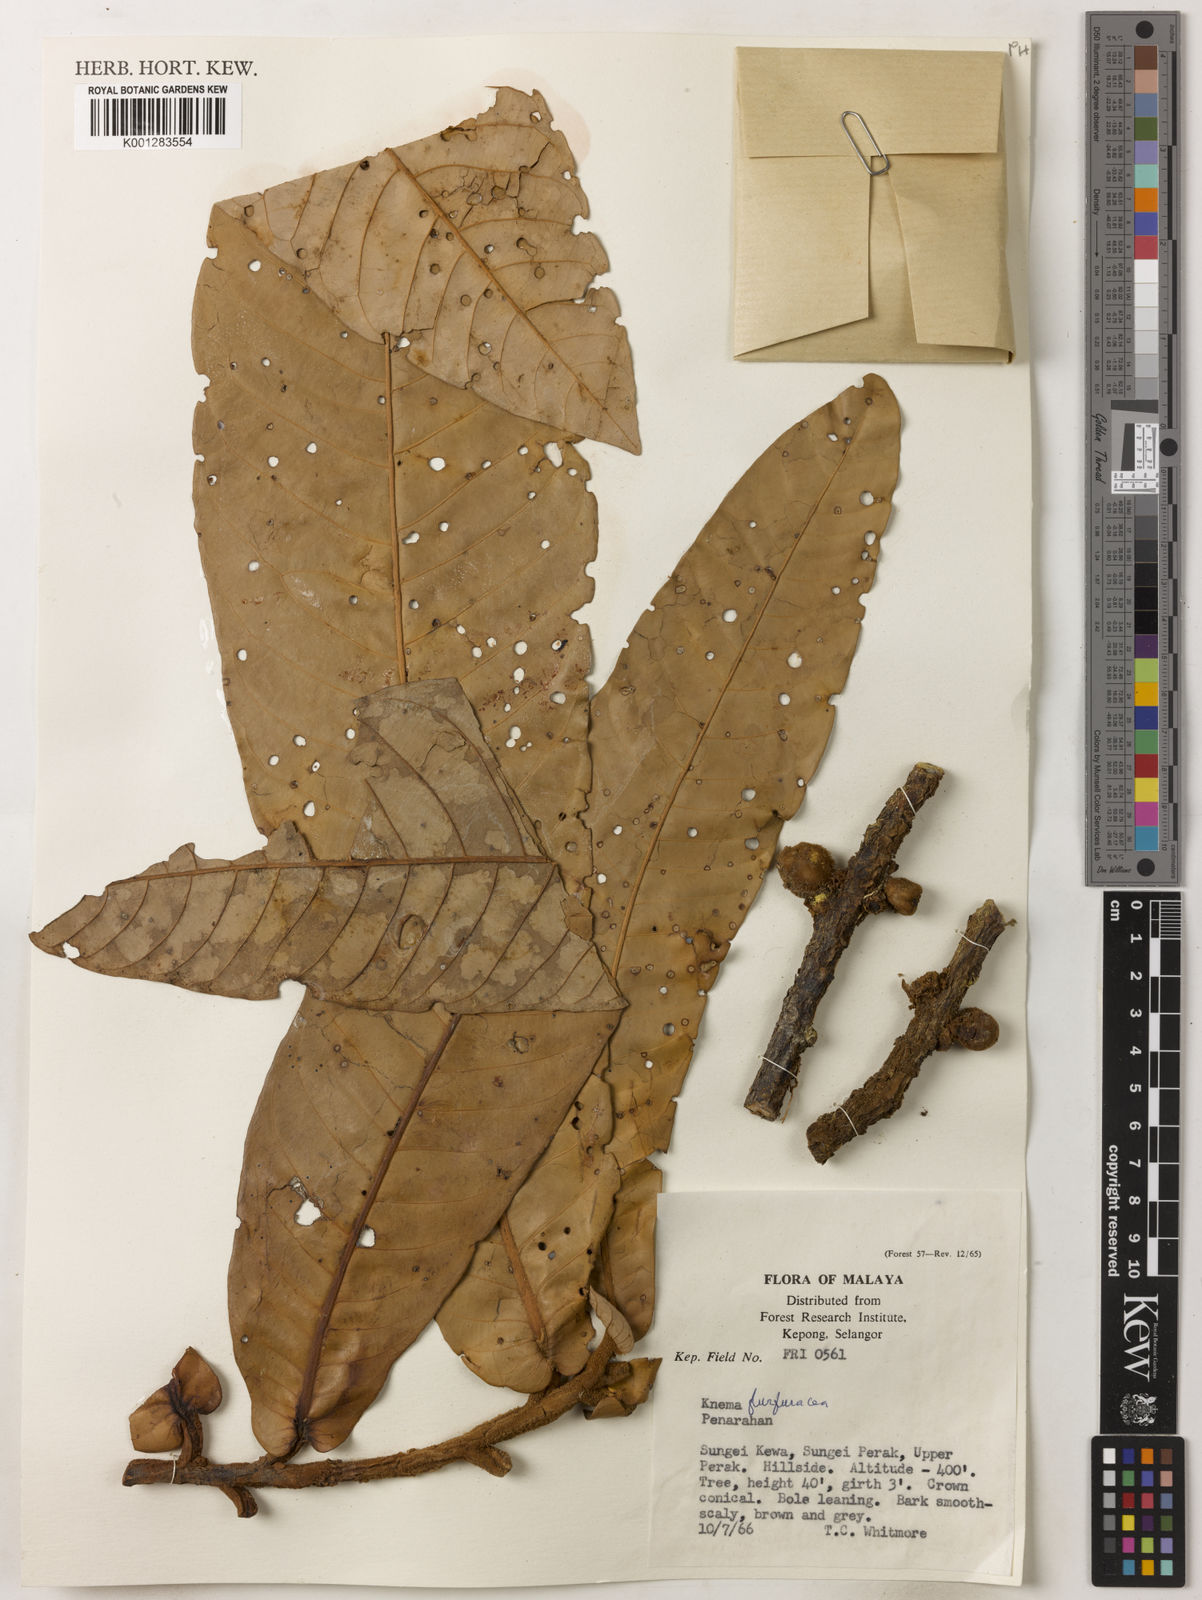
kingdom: Plantae
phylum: Tracheophyta
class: Magnoliopsida
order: Magnoliales
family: Myristicaceae
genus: Knema
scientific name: Knema furfuracea
